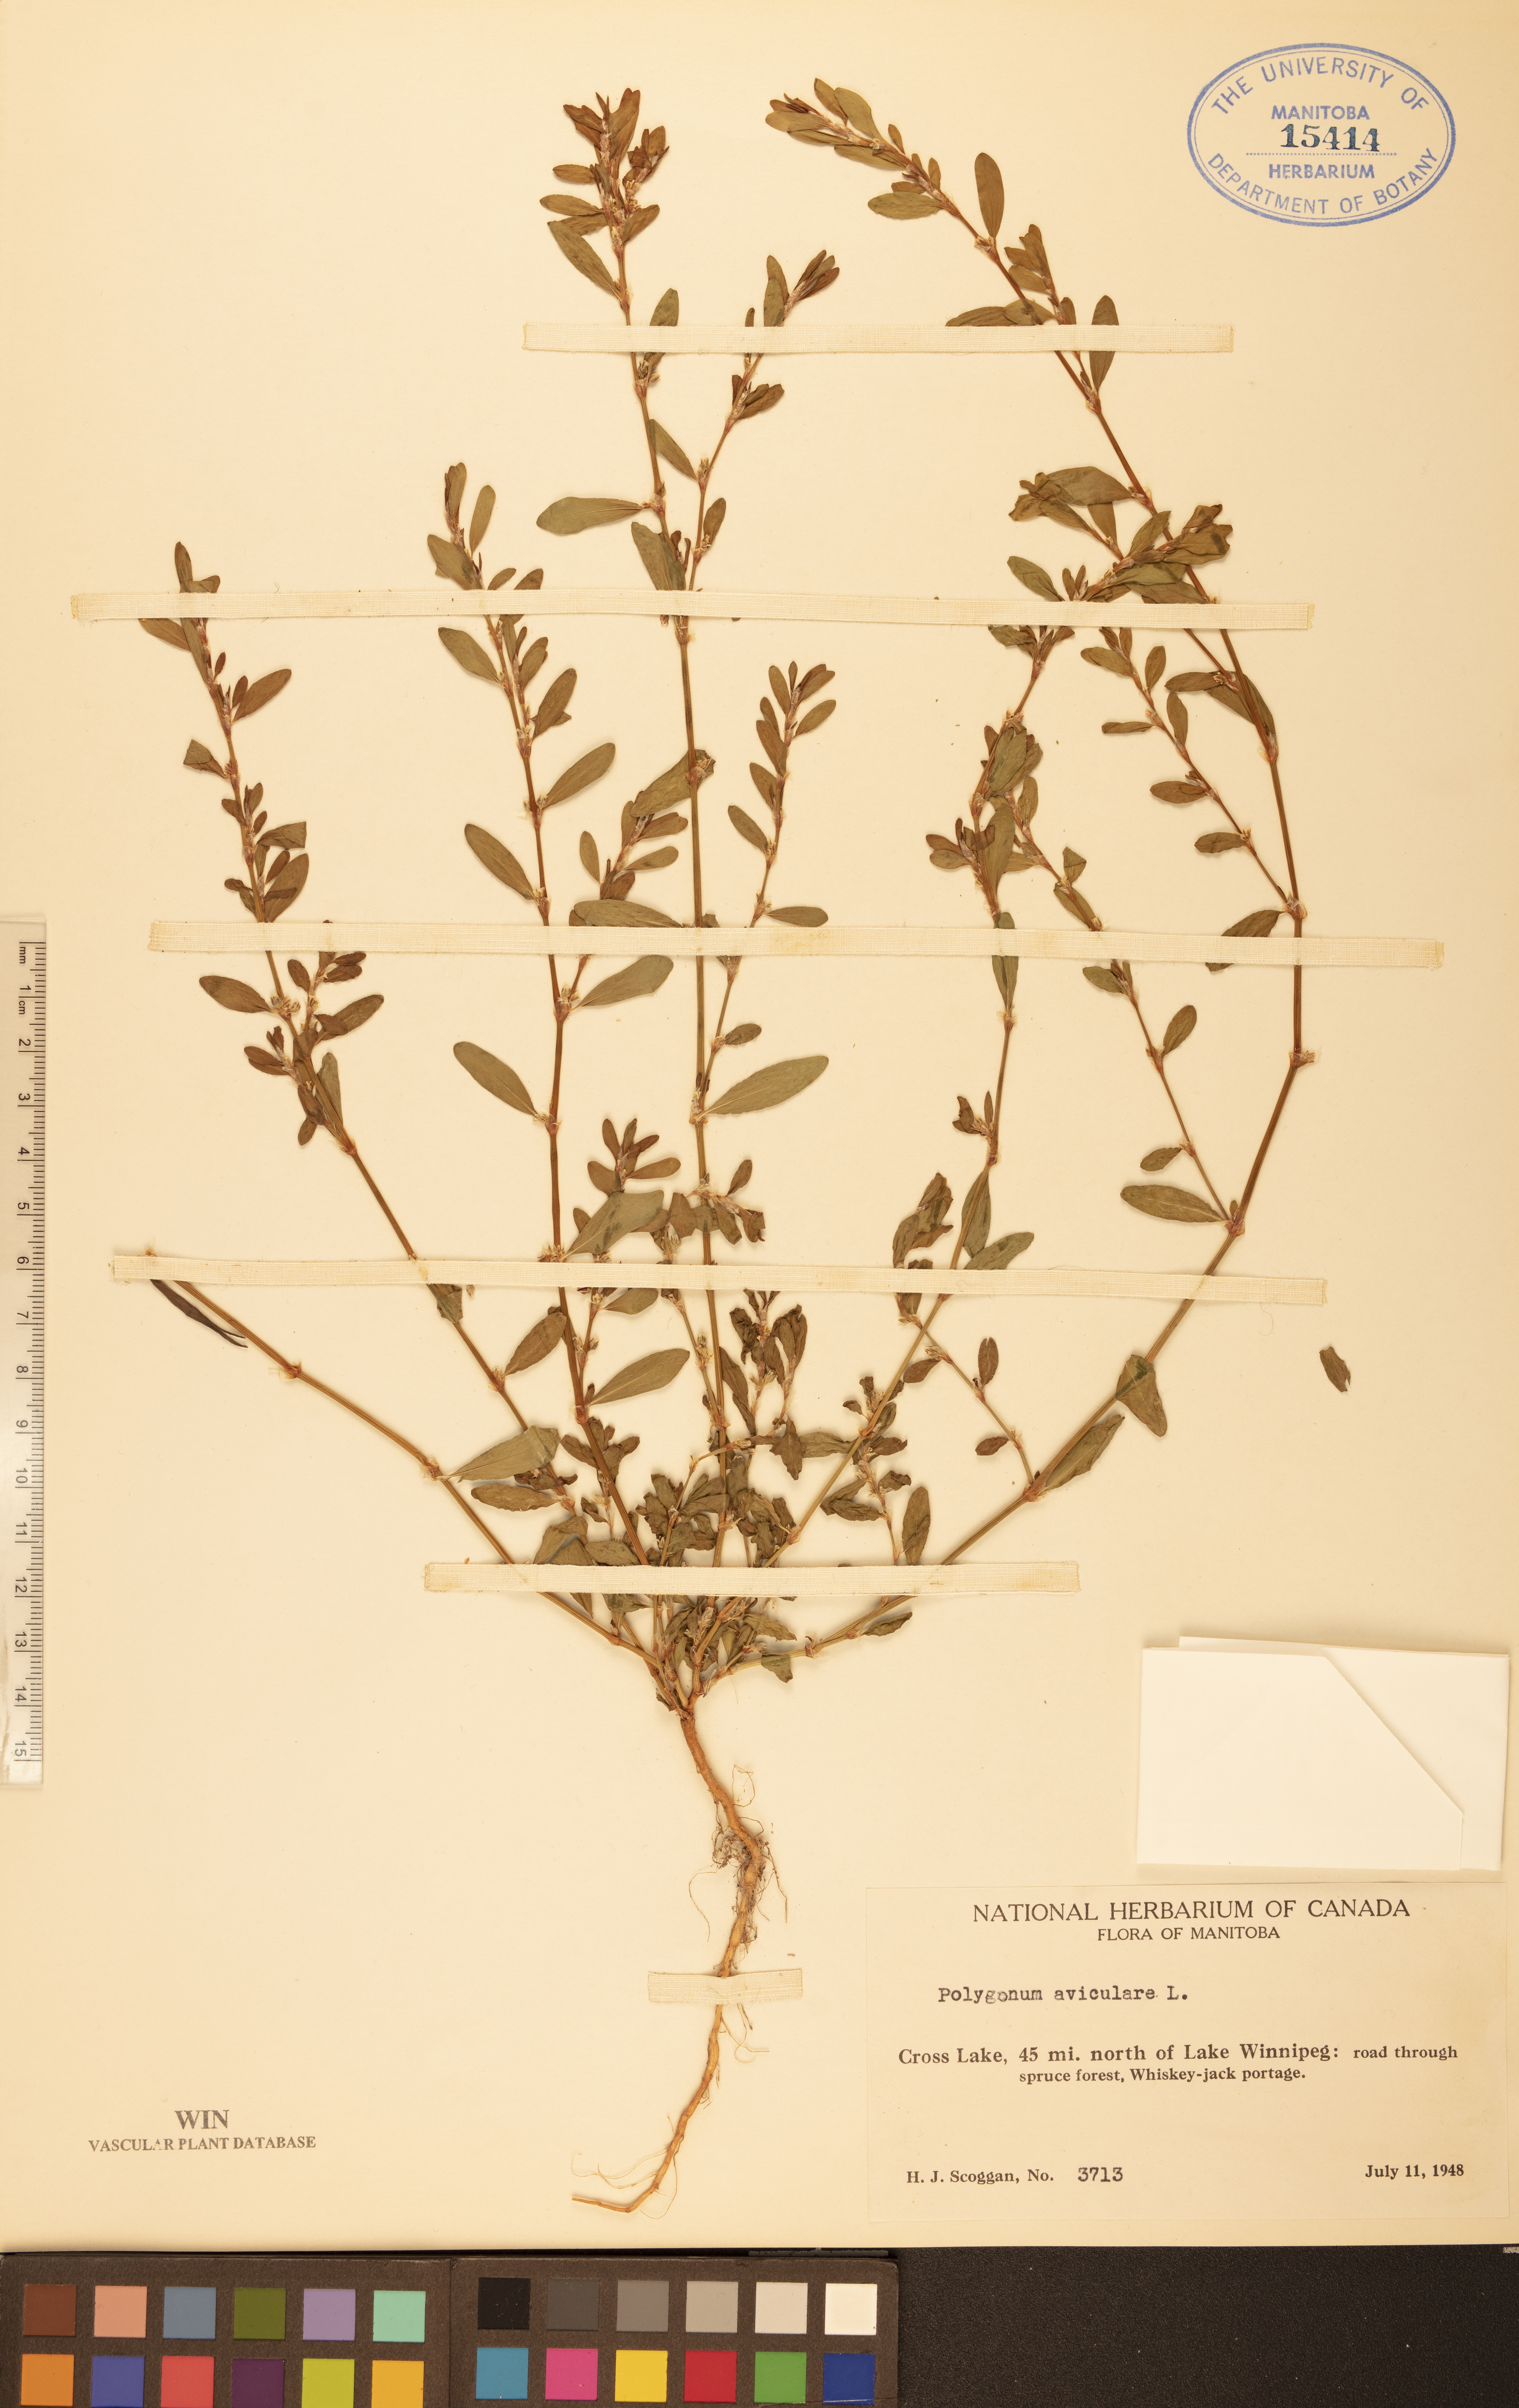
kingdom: Plantae
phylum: Tracheophyta
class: Magnoliopsida
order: Caryophyllales
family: Polygonaceae
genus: Polygonum
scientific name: Polygonum aviculare
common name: Prostrate knotweed
